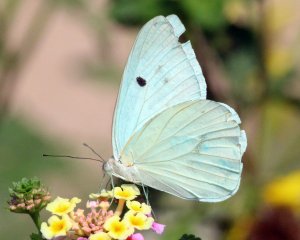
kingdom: Animalia
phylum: Arthropoda
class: Insecta
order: Lepidoptera
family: Pieridae
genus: Ganyra
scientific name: Ganyra josephina
